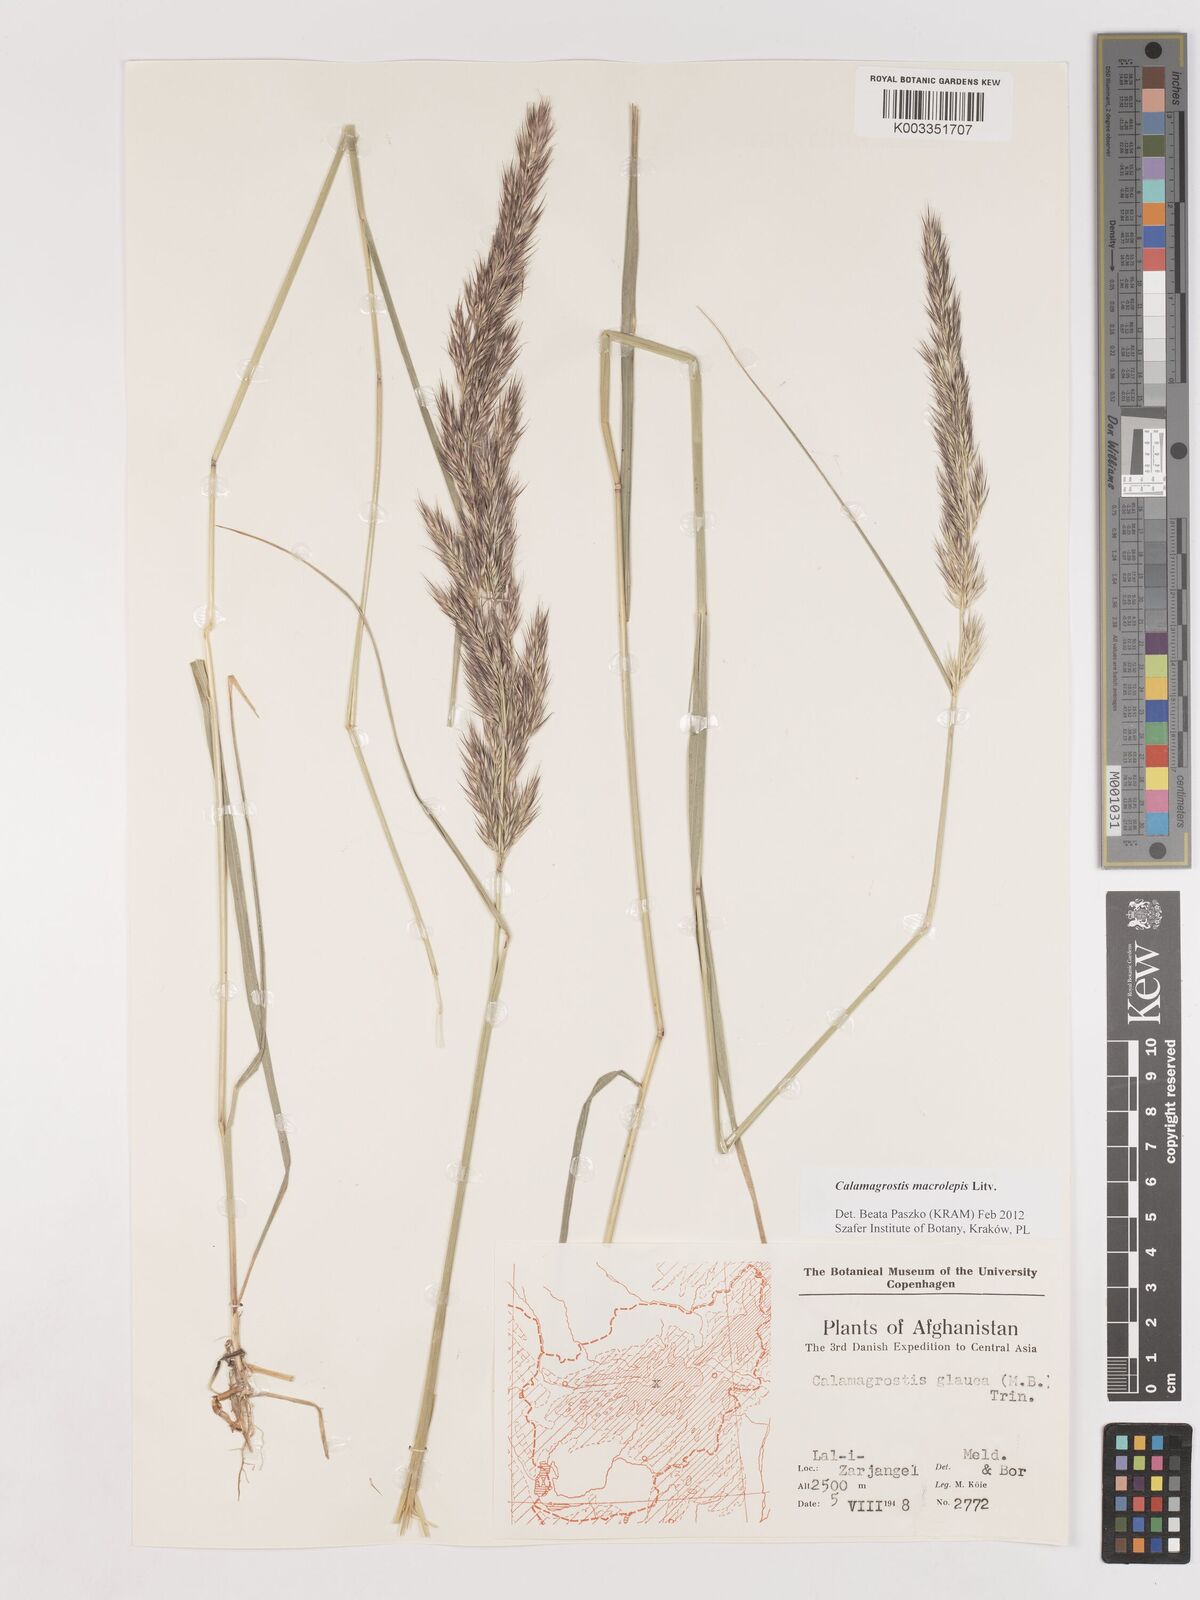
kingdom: Plantae
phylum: Tracheophyta
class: Liliopsida
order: Poales
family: Poaceae
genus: Calamagrostis
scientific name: Calamagrostis epigejos
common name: Wood small-reed
